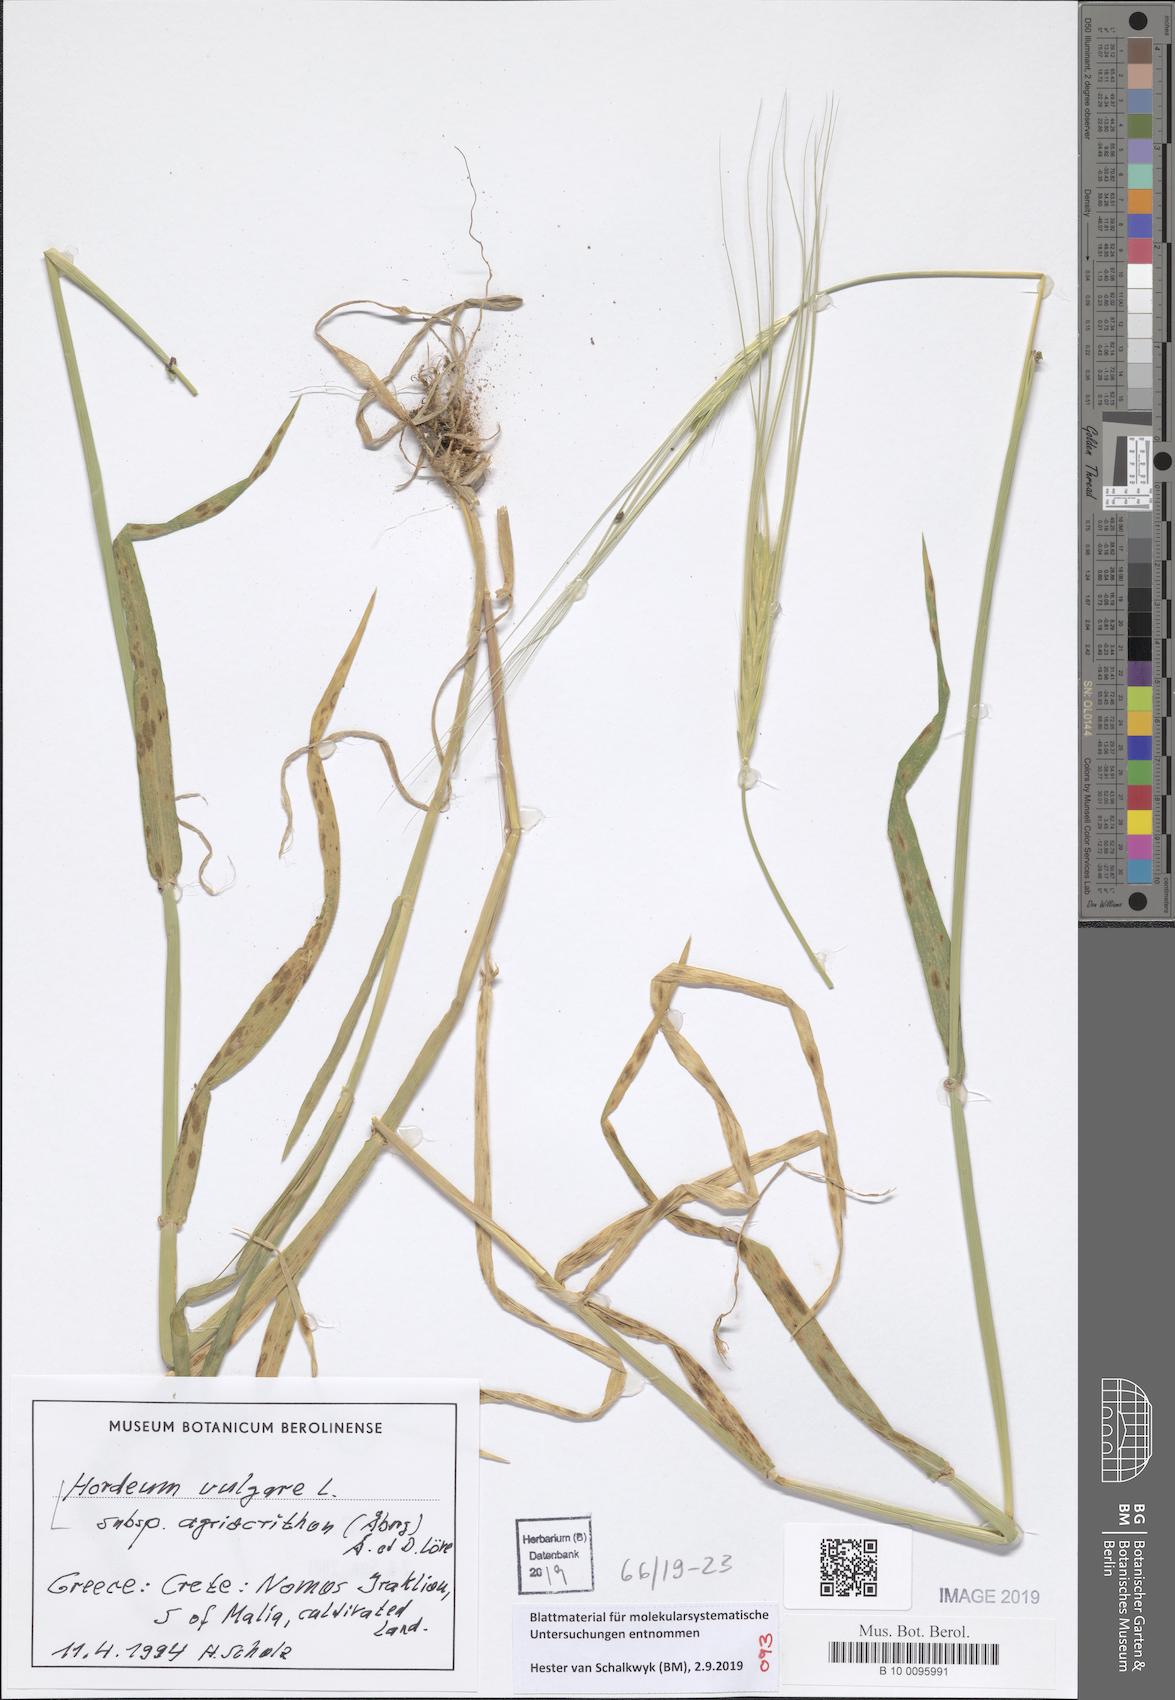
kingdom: Plantae
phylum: Tracheophyta
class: Liliopsida
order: Poales
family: Poaceae
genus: Hordeum
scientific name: Hordeum spontaneum
